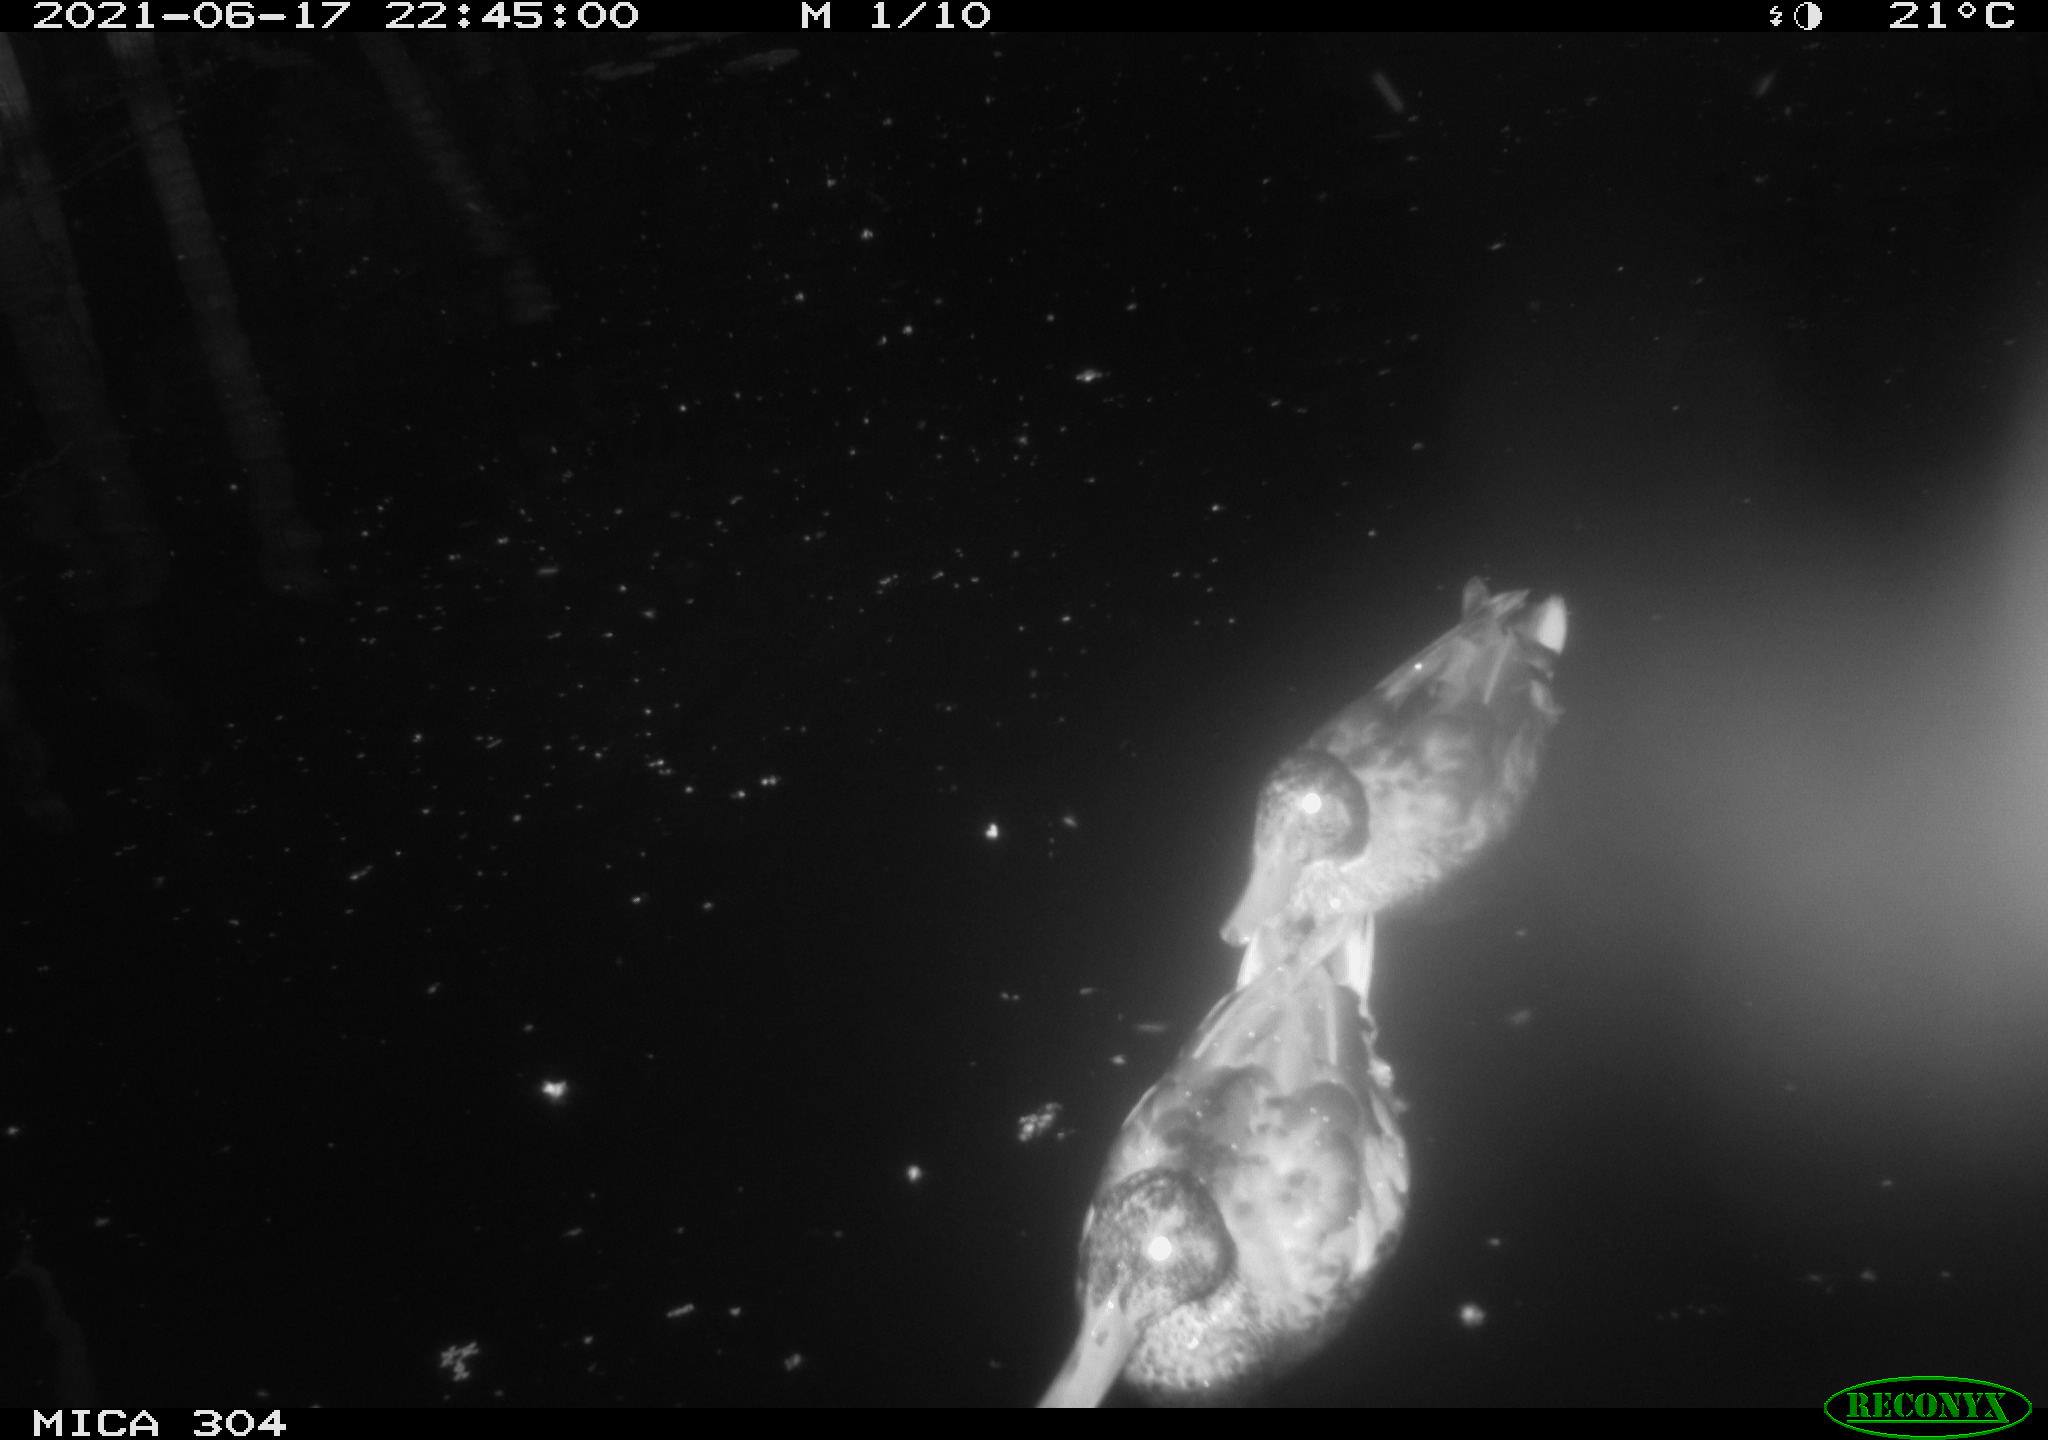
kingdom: Animalia
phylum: Chordata
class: Aves
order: Anseriformes
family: Anatidae
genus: Mareca
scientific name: Mareca strepera
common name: Gadwall
